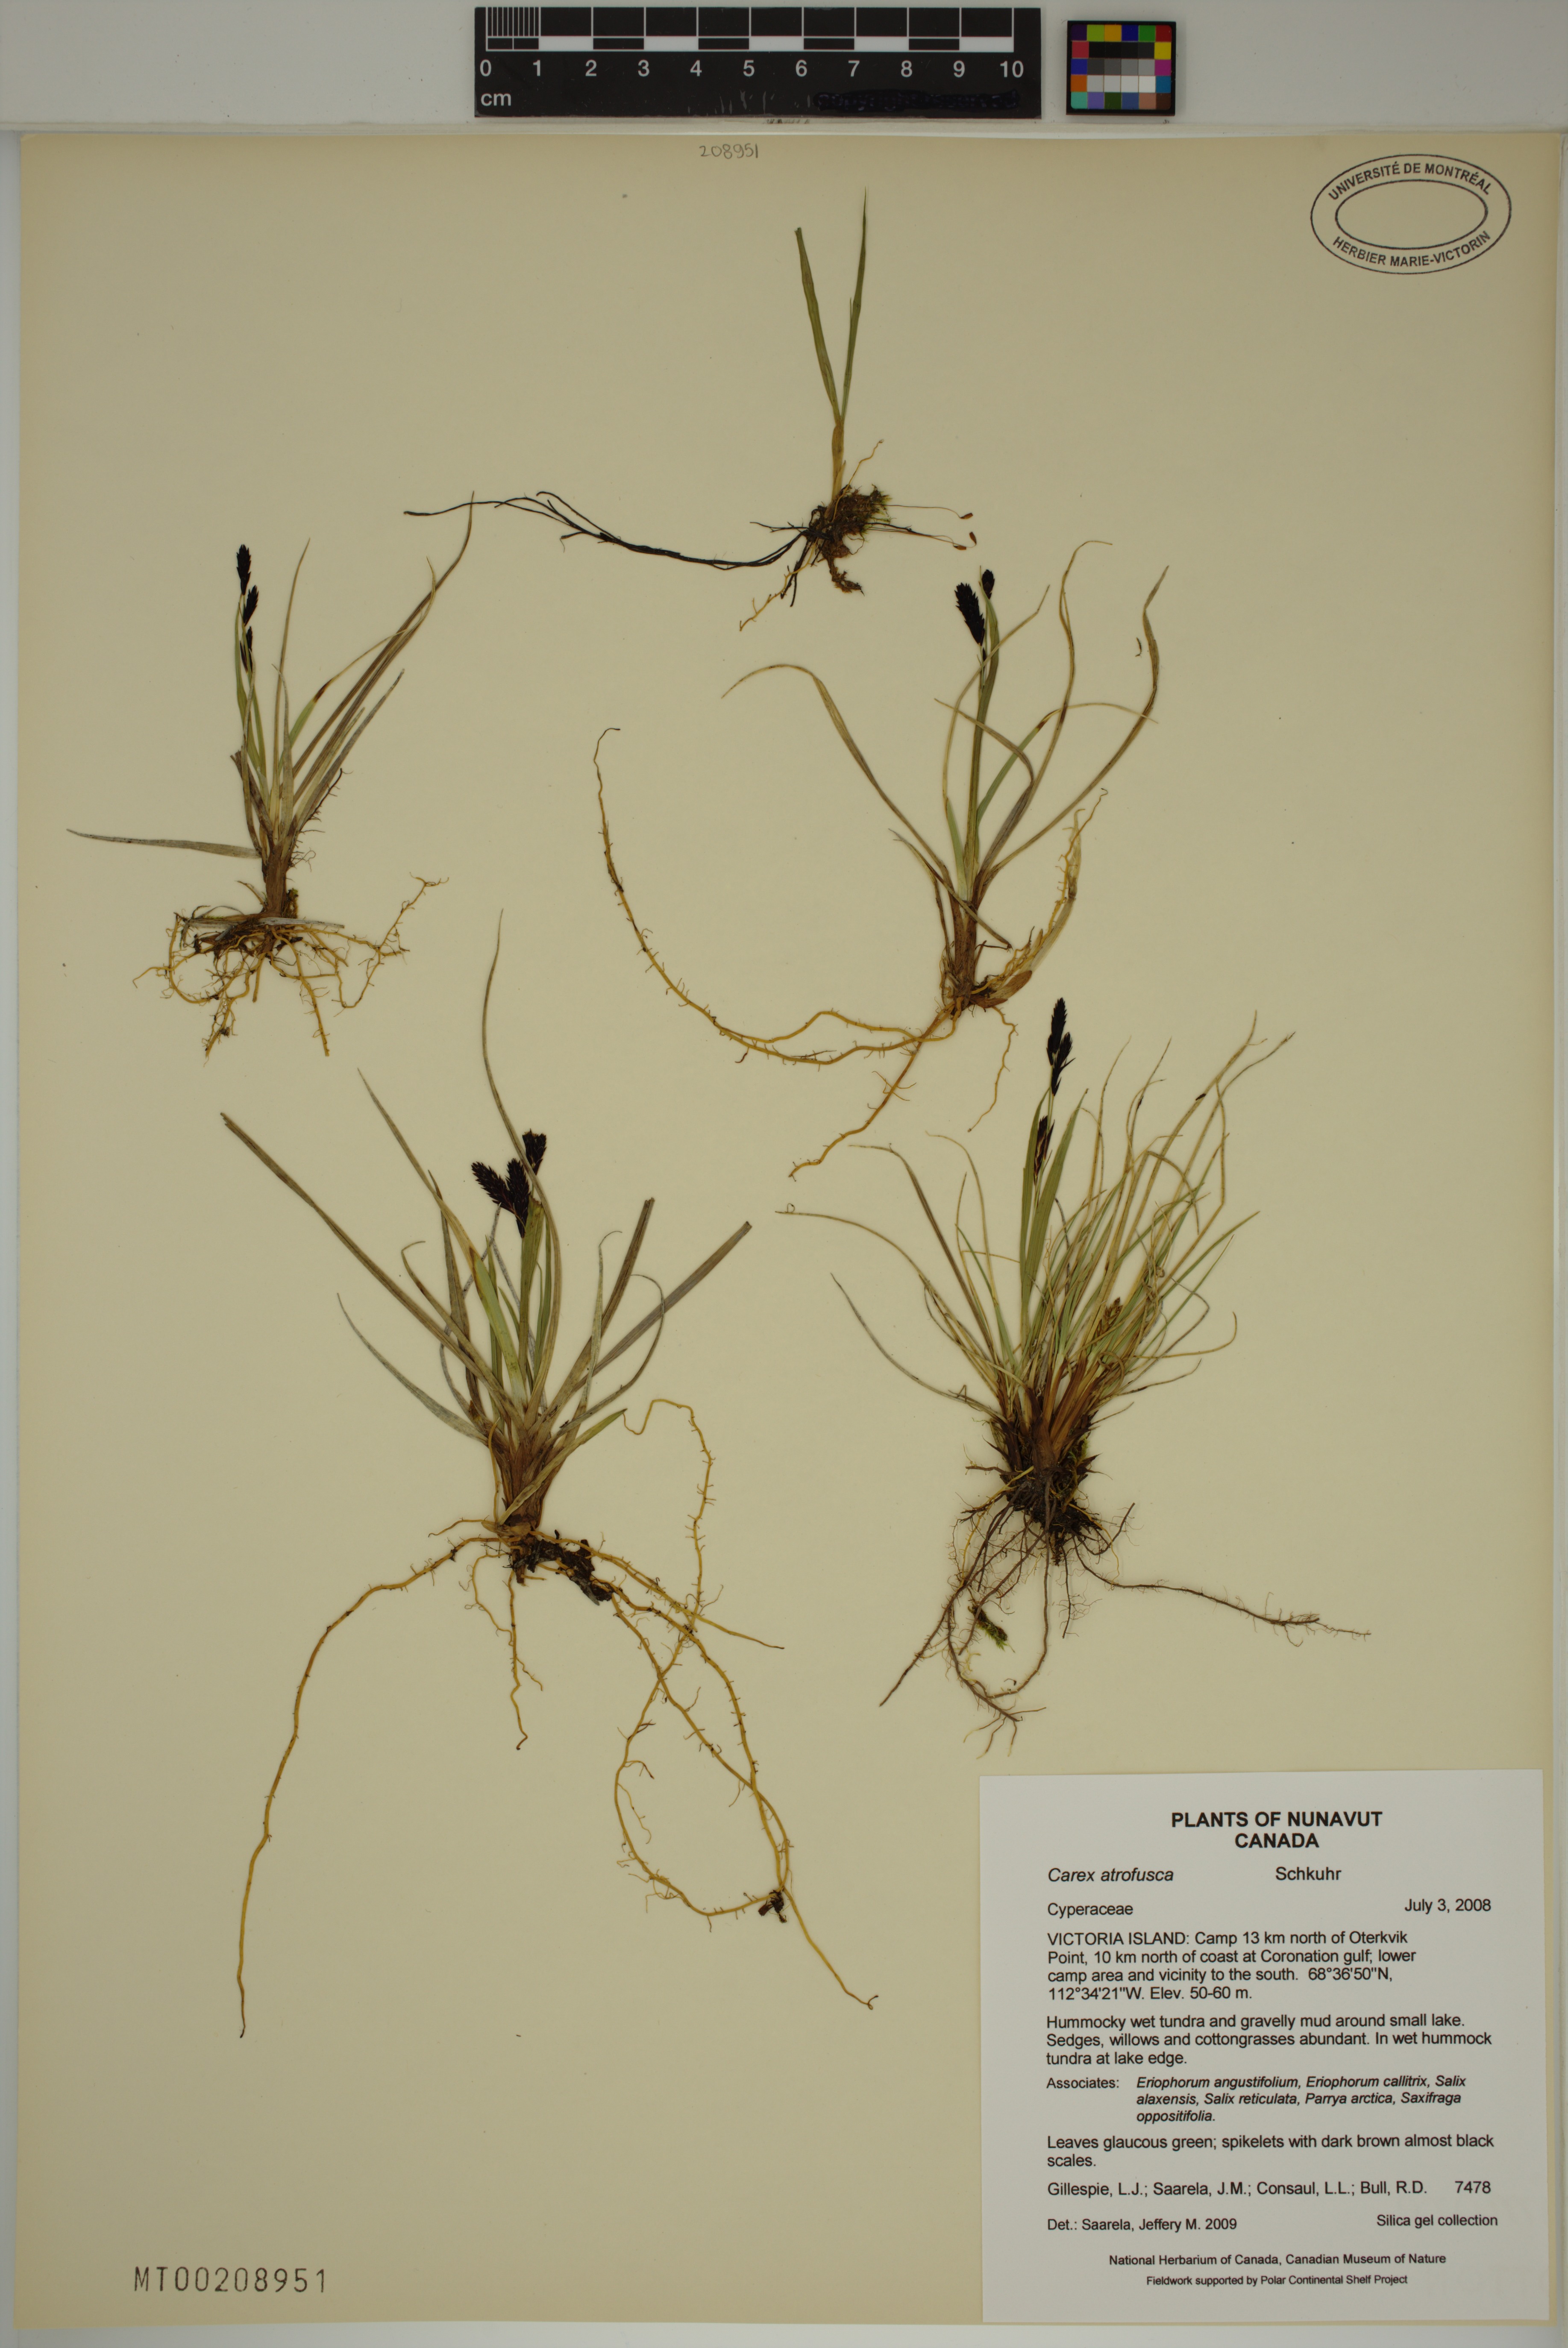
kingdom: Plantae
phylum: Tracheophyta
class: Liliopsida
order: Poales
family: Cyperaceae
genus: Carex
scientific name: Carex atrofusca
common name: Scorched alpine-sedge
